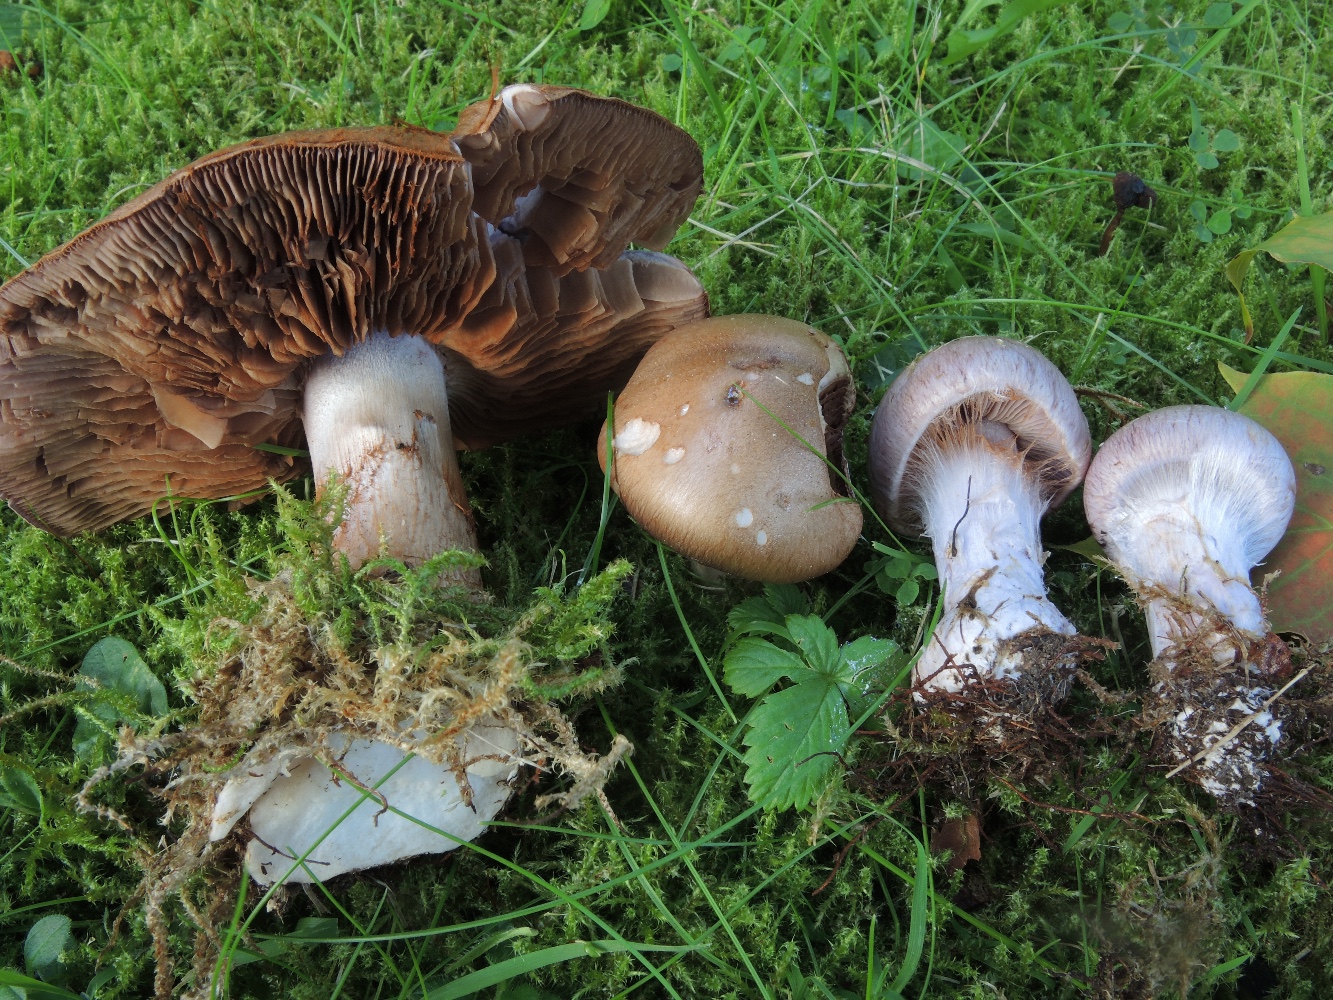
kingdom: Fungi
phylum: Basidiomycota
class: Agaricomycetes
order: Agaricales
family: Cortinariaceae
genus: Cortinarius
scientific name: Cortinarius largus
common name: violetrandet slørhat
